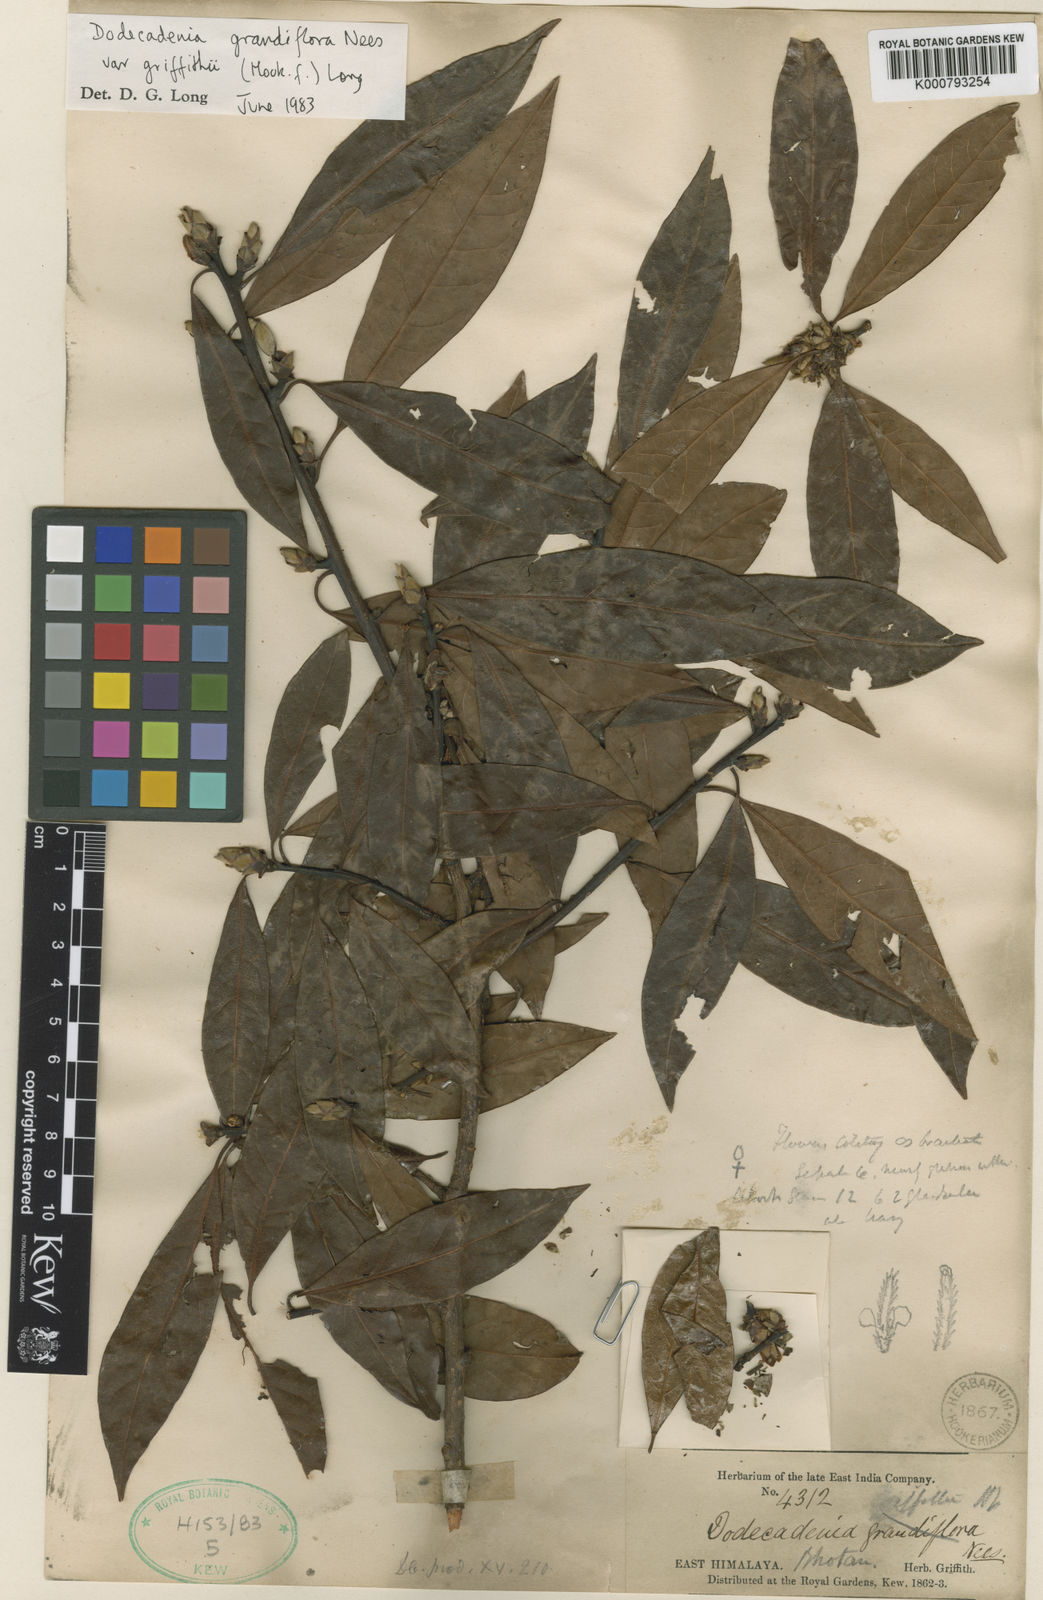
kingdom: Plantae
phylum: Tracheophyta
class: Magnoliopsida
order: Laurales
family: Lauraceae
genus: Litsea
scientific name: Litsea ferruginea
